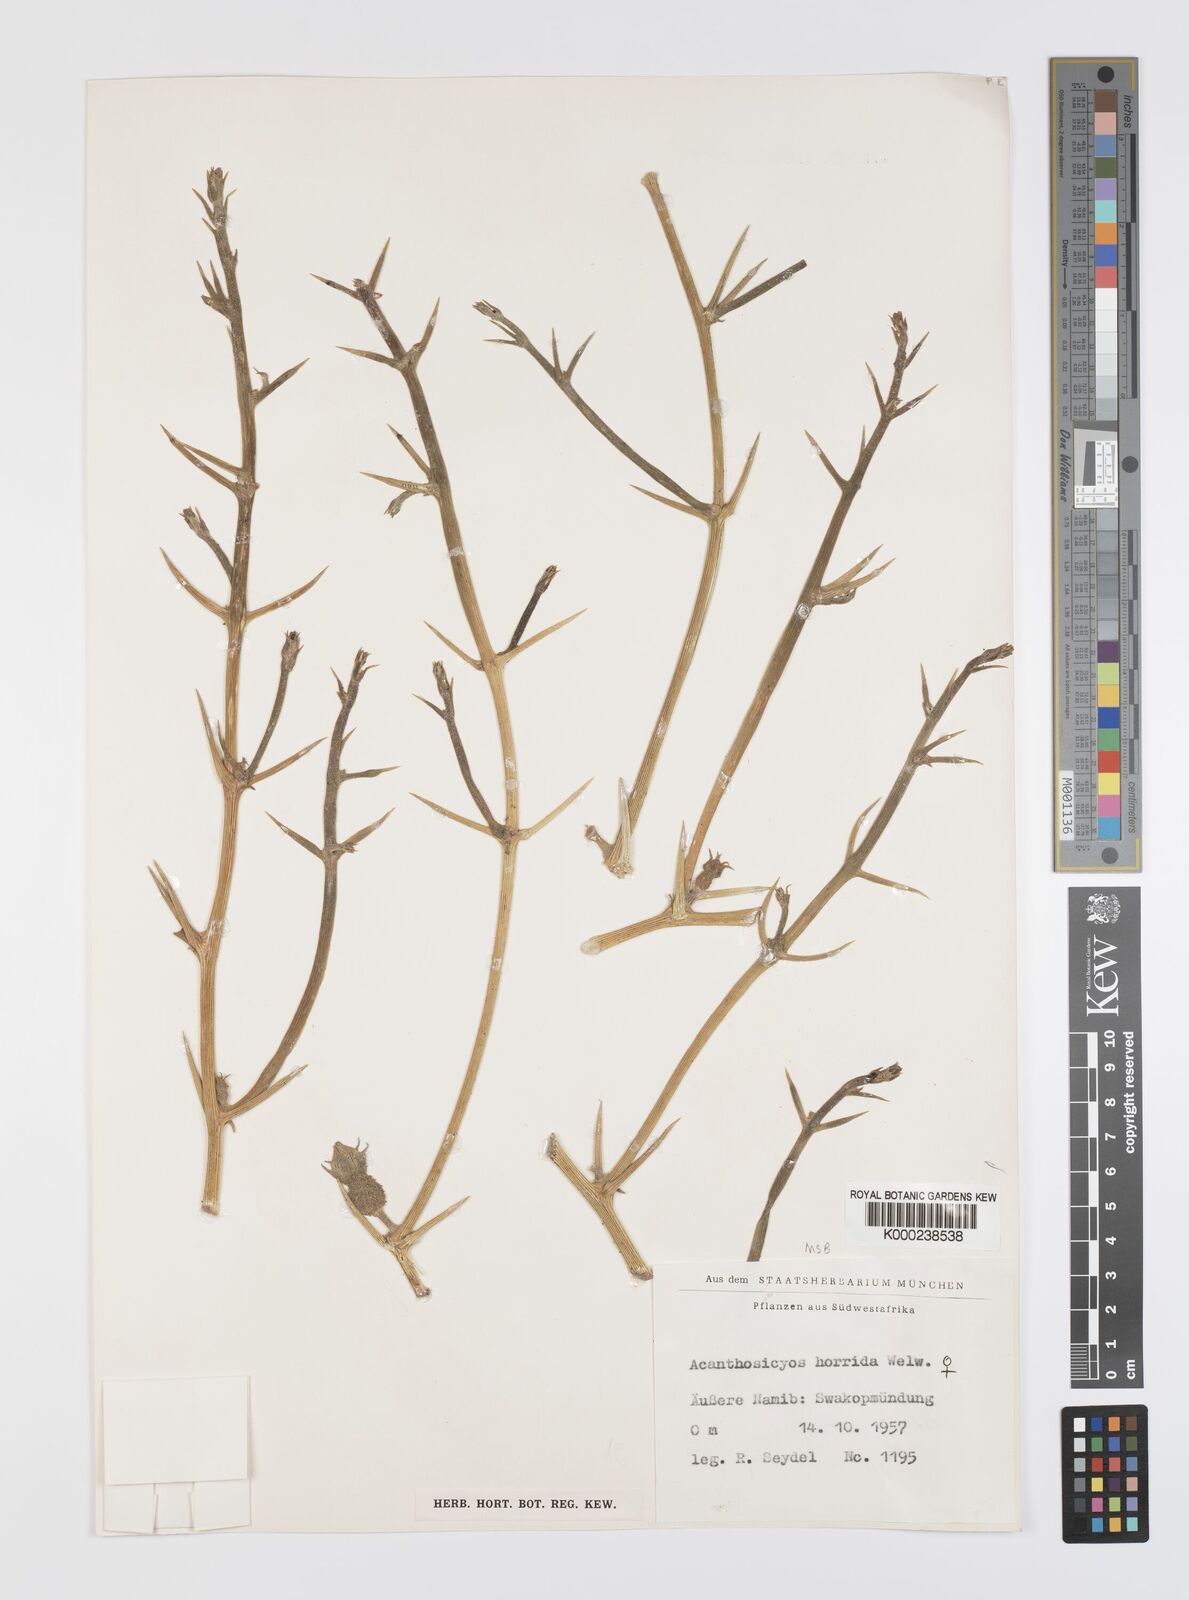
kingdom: Plantae
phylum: Tracheophyta
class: Magnoliopsida
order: Cucurbitales
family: Cucurbitaceae
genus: Acanthosicyos
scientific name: Acanthosicyos horridus
